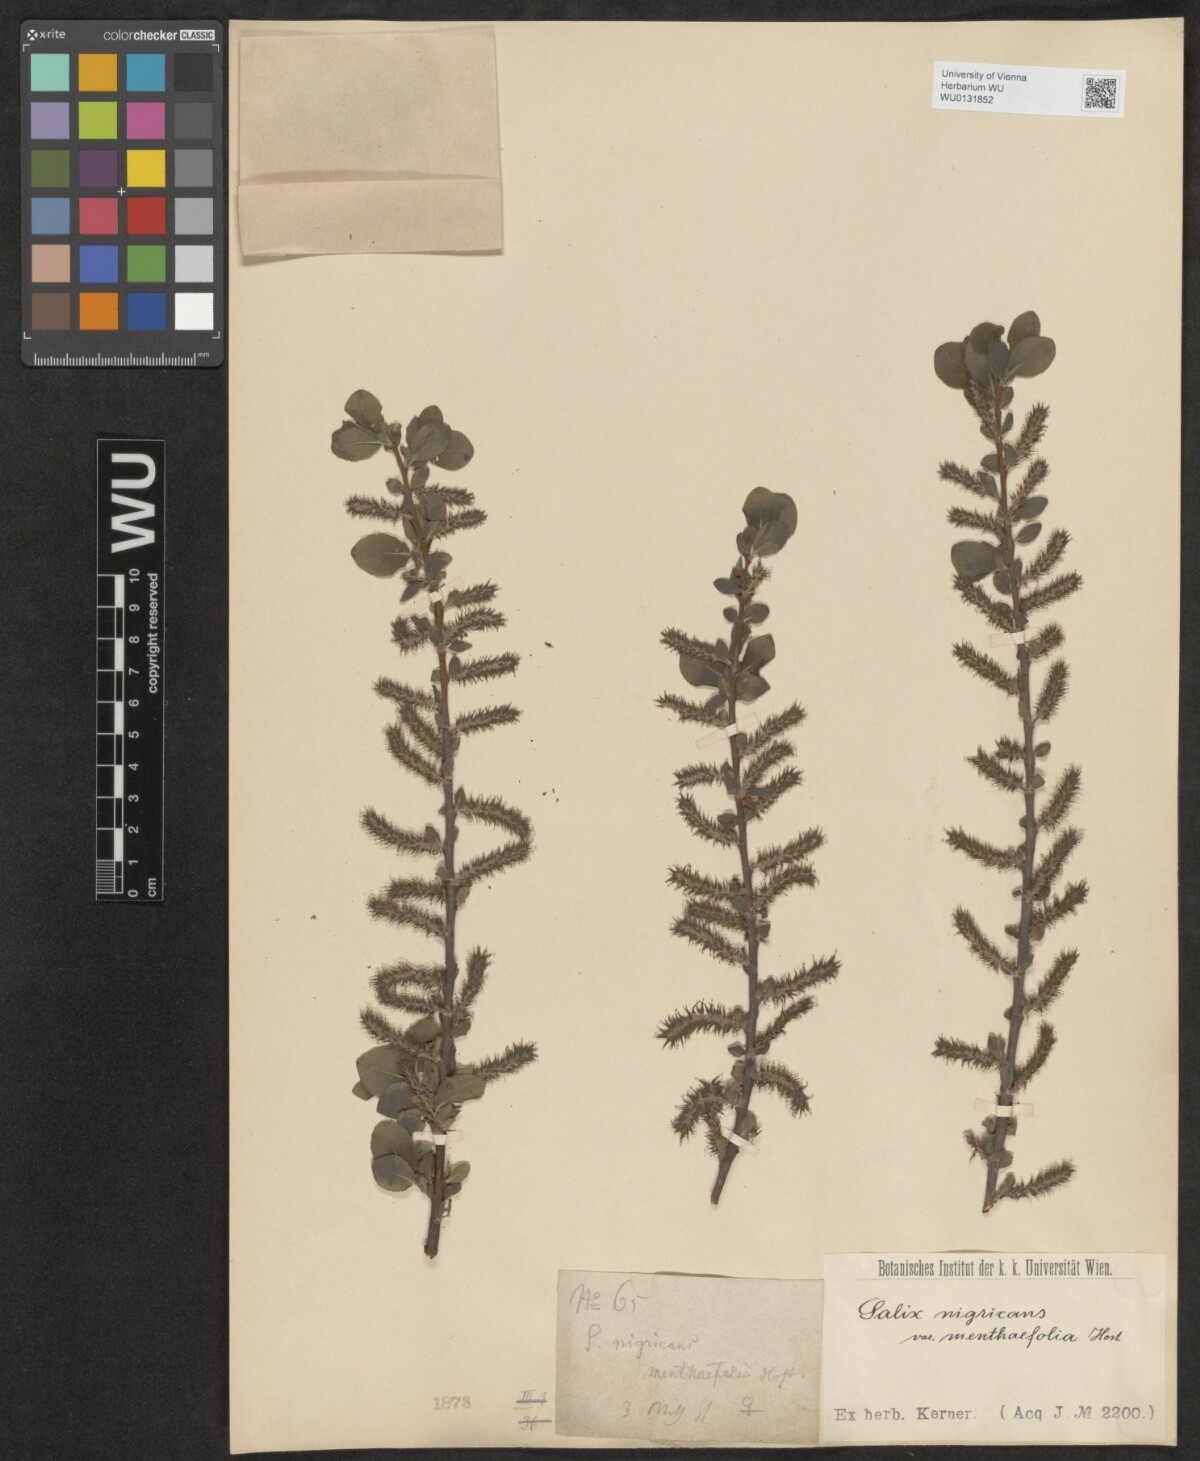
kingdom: Plantae
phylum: Tracheophyta
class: Magnoliopsida
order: Malpighiales
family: Salicaceae
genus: Salix
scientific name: Salix myrsinifolia
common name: Dark-leaved willow
